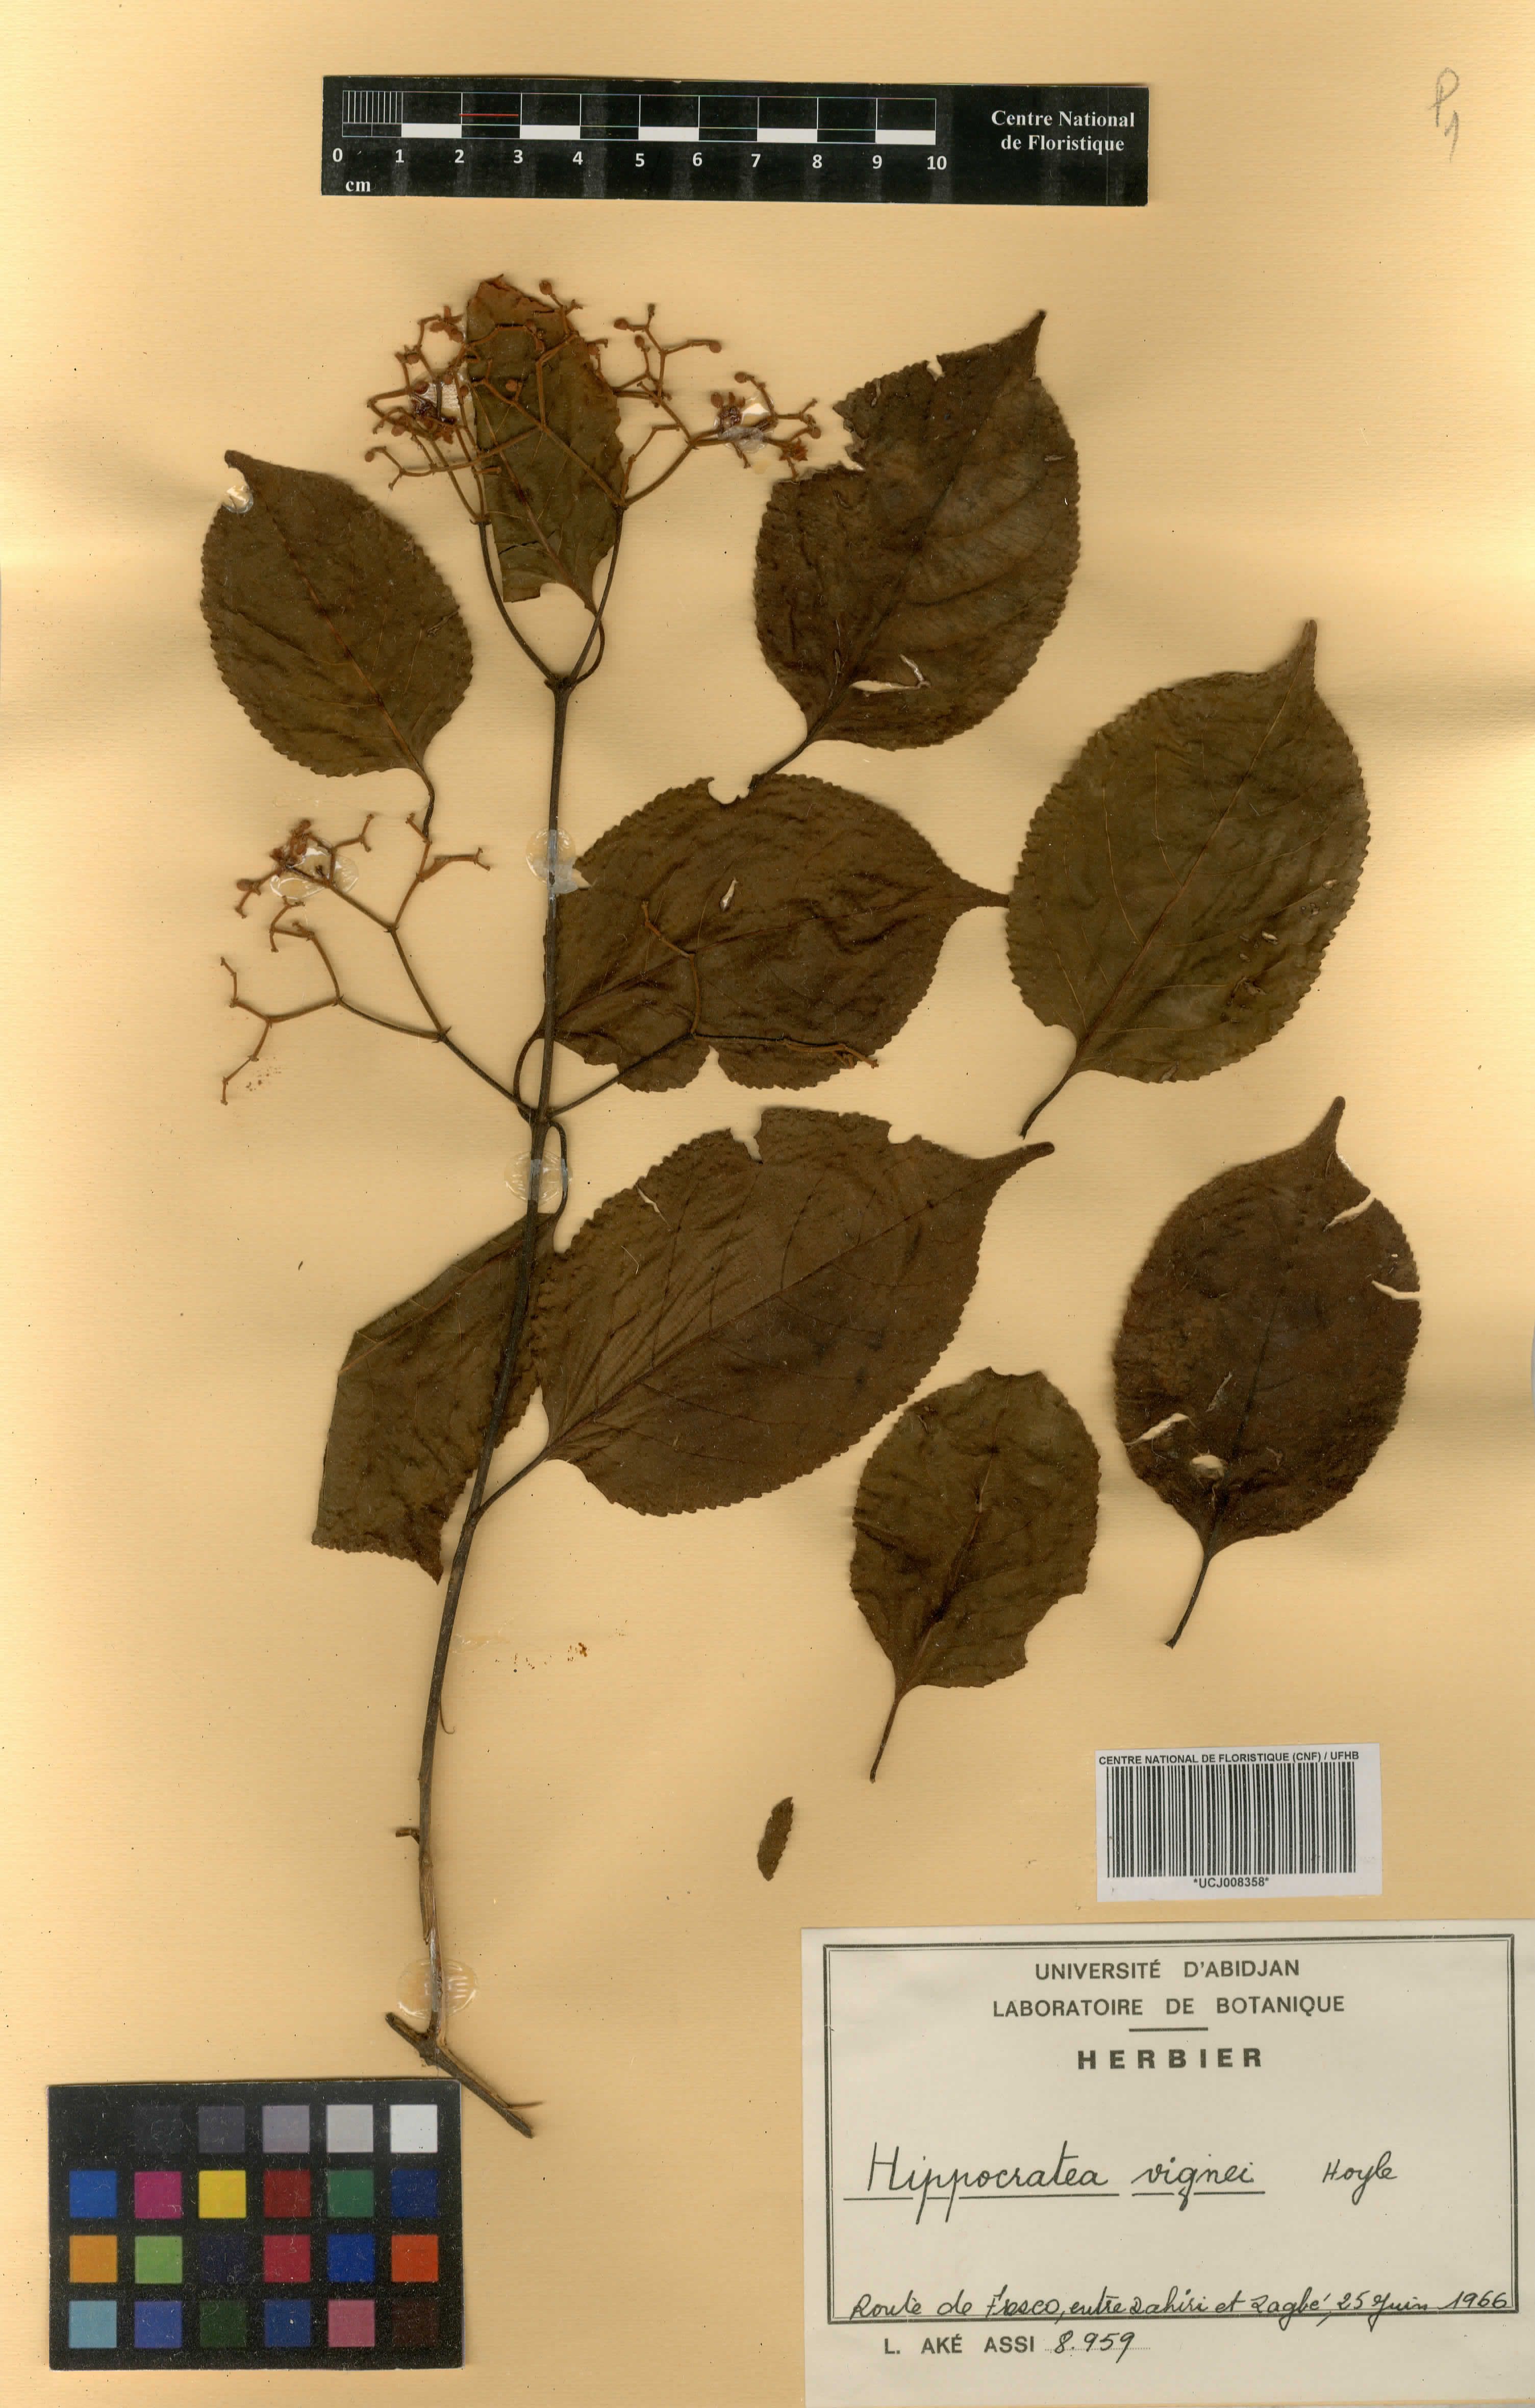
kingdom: Plantae
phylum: Tracheophyta
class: Magnoliopsida
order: Celastrales
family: Celastraceae
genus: Hippocratea
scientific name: Hippocratea
